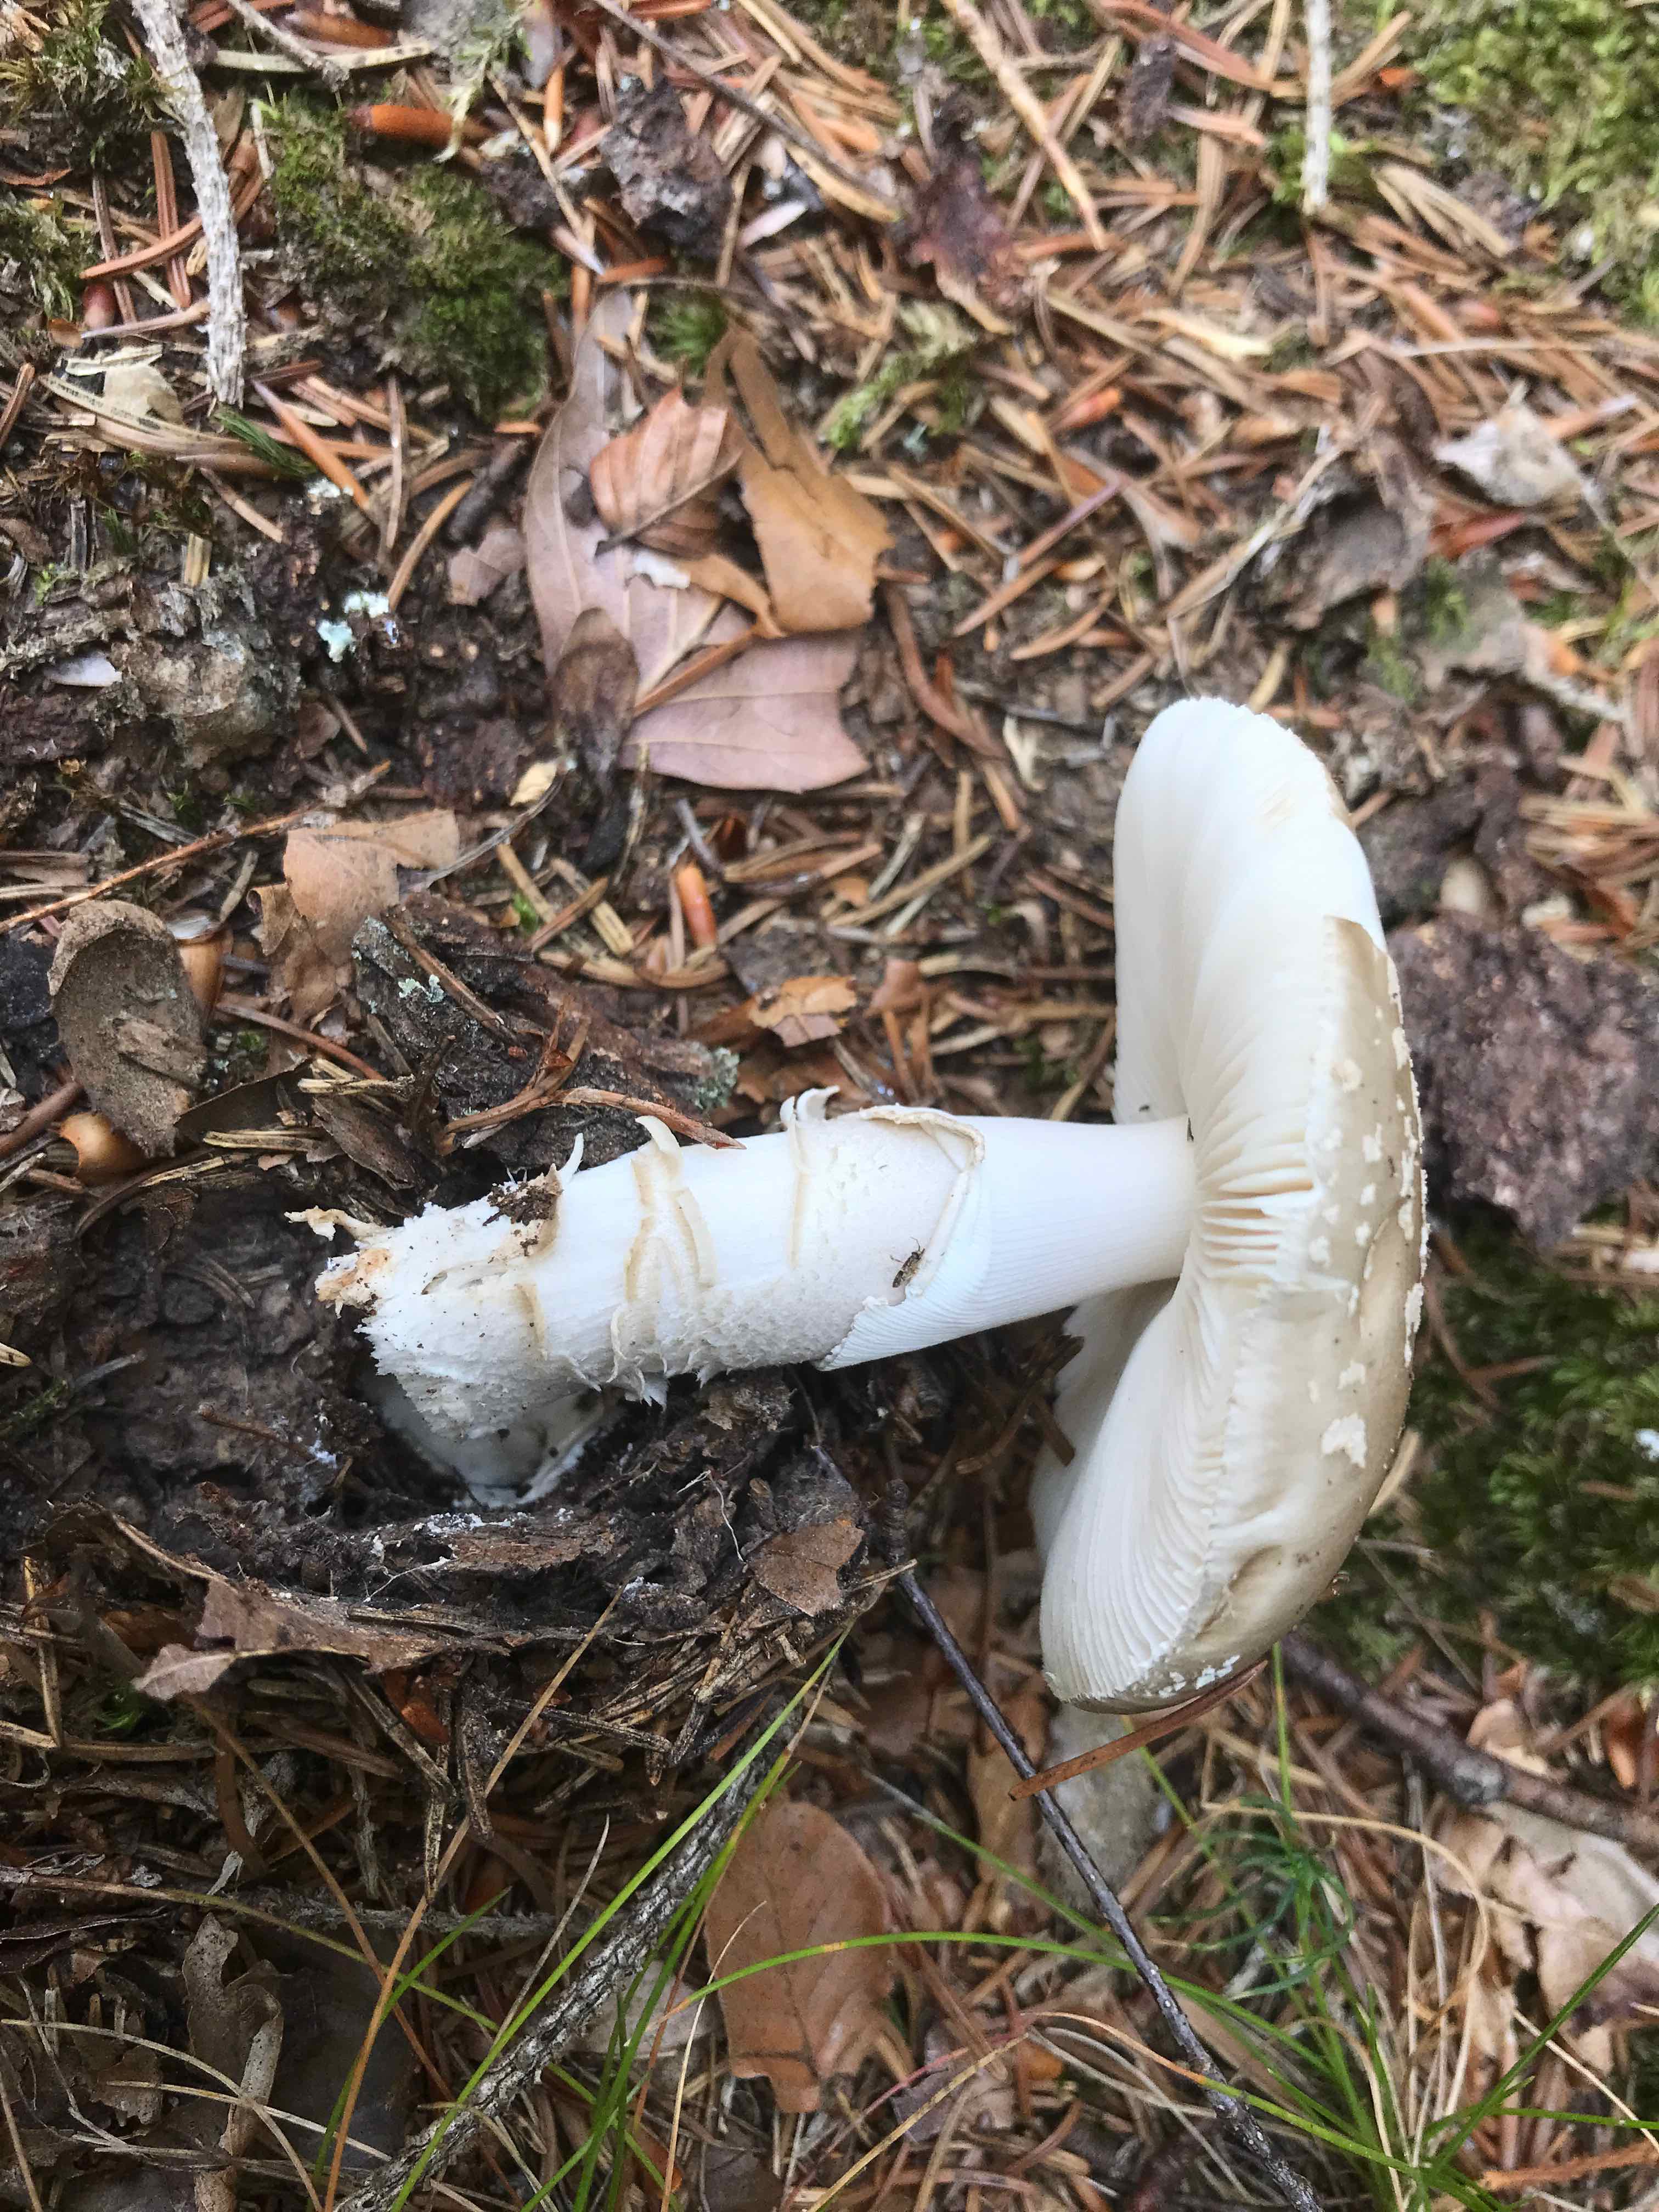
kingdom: Fungi
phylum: Basidiomycota
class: Agaricomycetes
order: Agaricales
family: Amanitaceae
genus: Amanita
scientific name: Amanita
